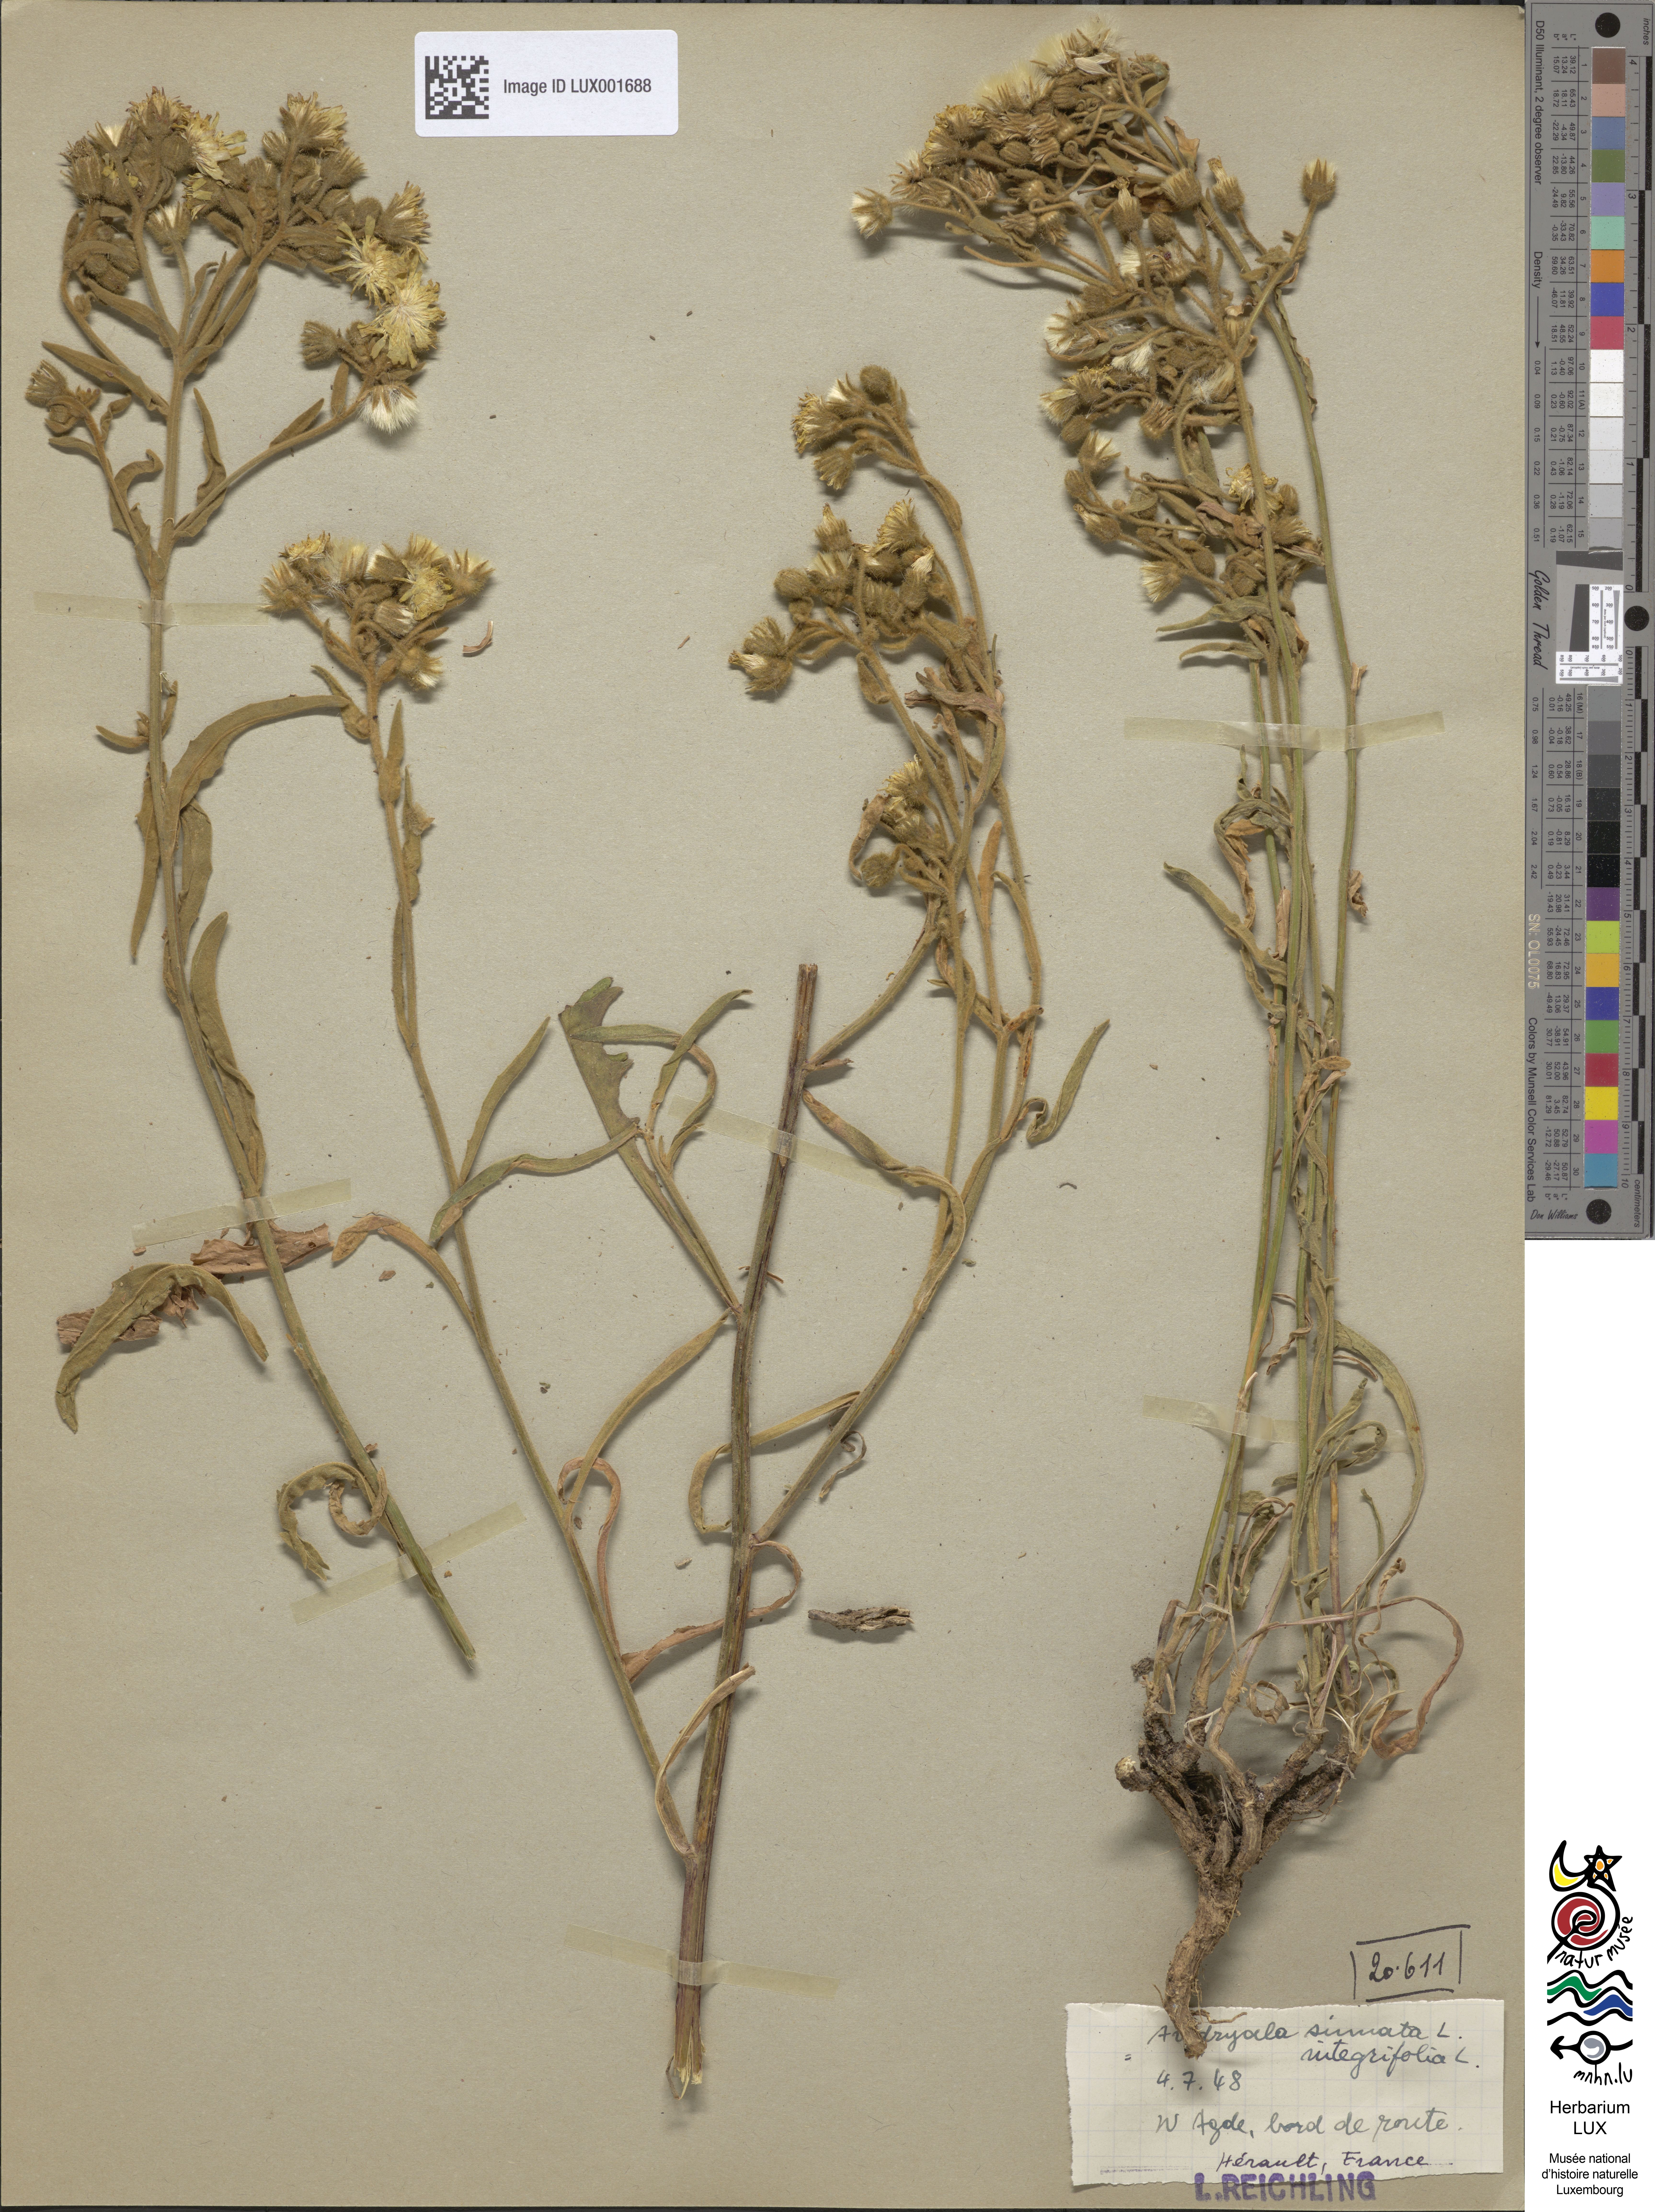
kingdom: Plantae
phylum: Tracheophyta
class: Magnoliopsida
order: Asterales
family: Asteraceae
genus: Andryala
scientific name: Andryala integrifolia
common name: Common andryala
